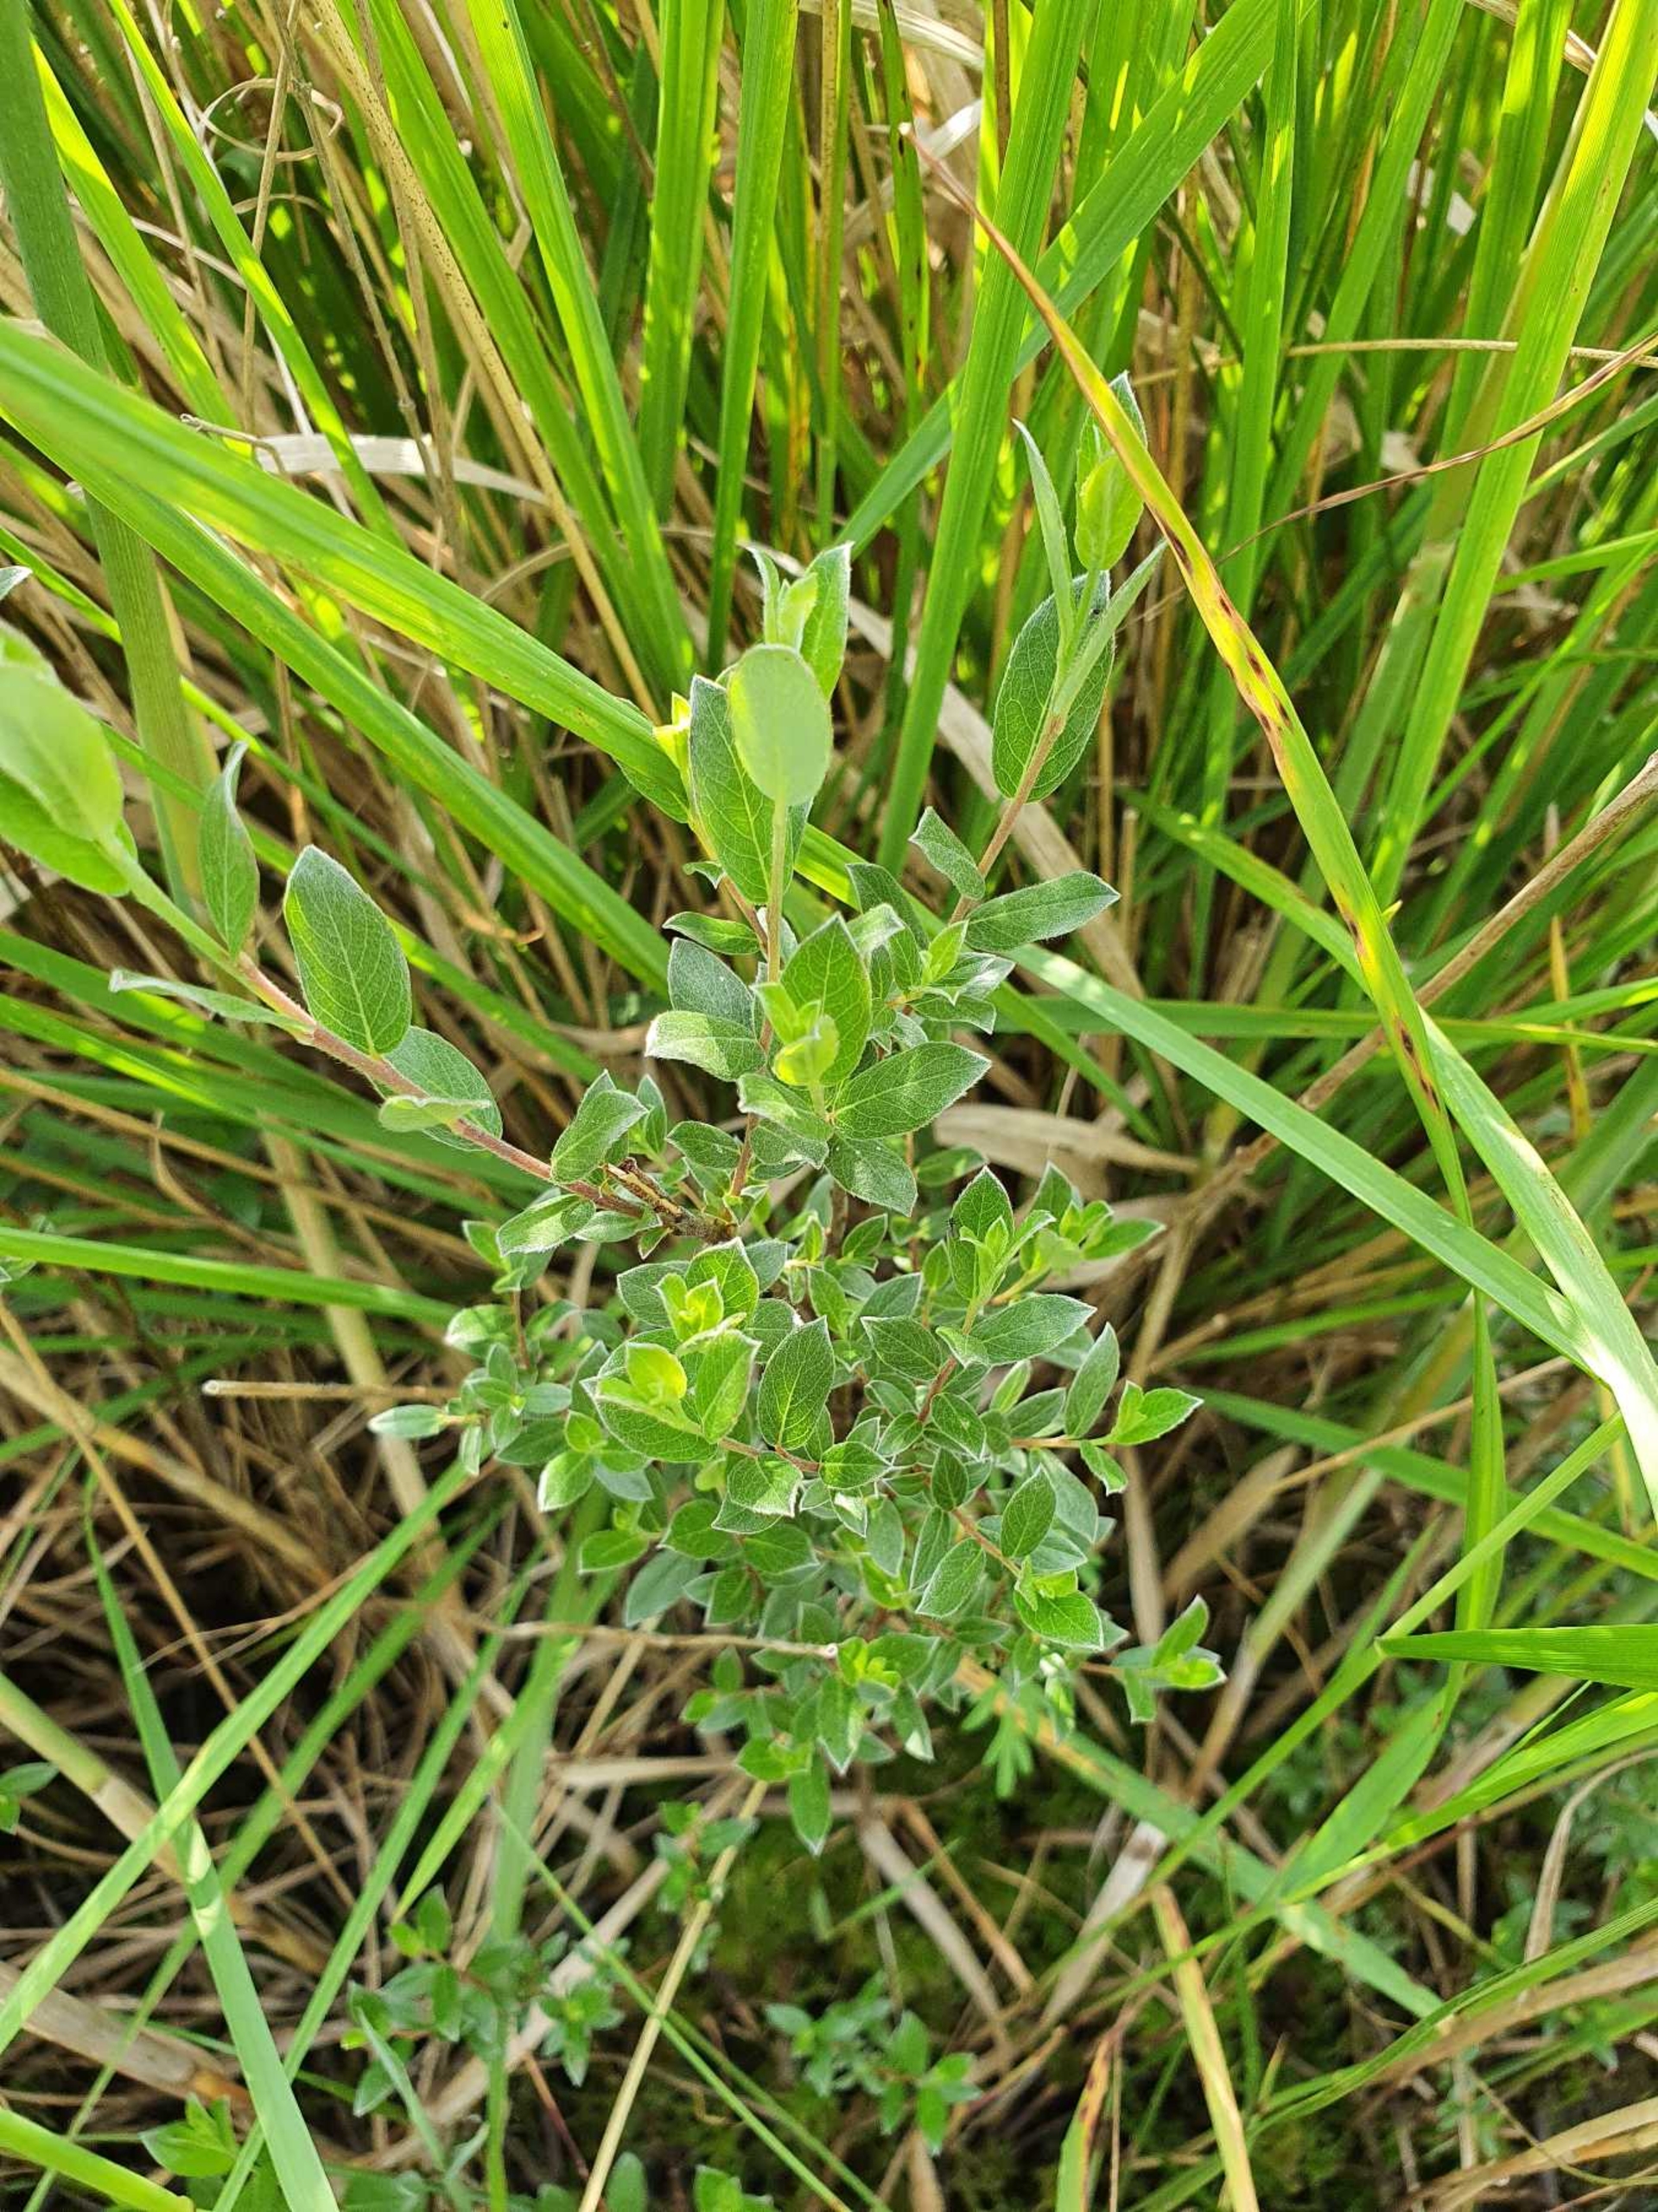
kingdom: Plantae
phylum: Tracheophyta
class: Magnoliopsida
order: Malpighiales
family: Salicaceae
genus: Salix
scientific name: Salix repens
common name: Krybende pil
